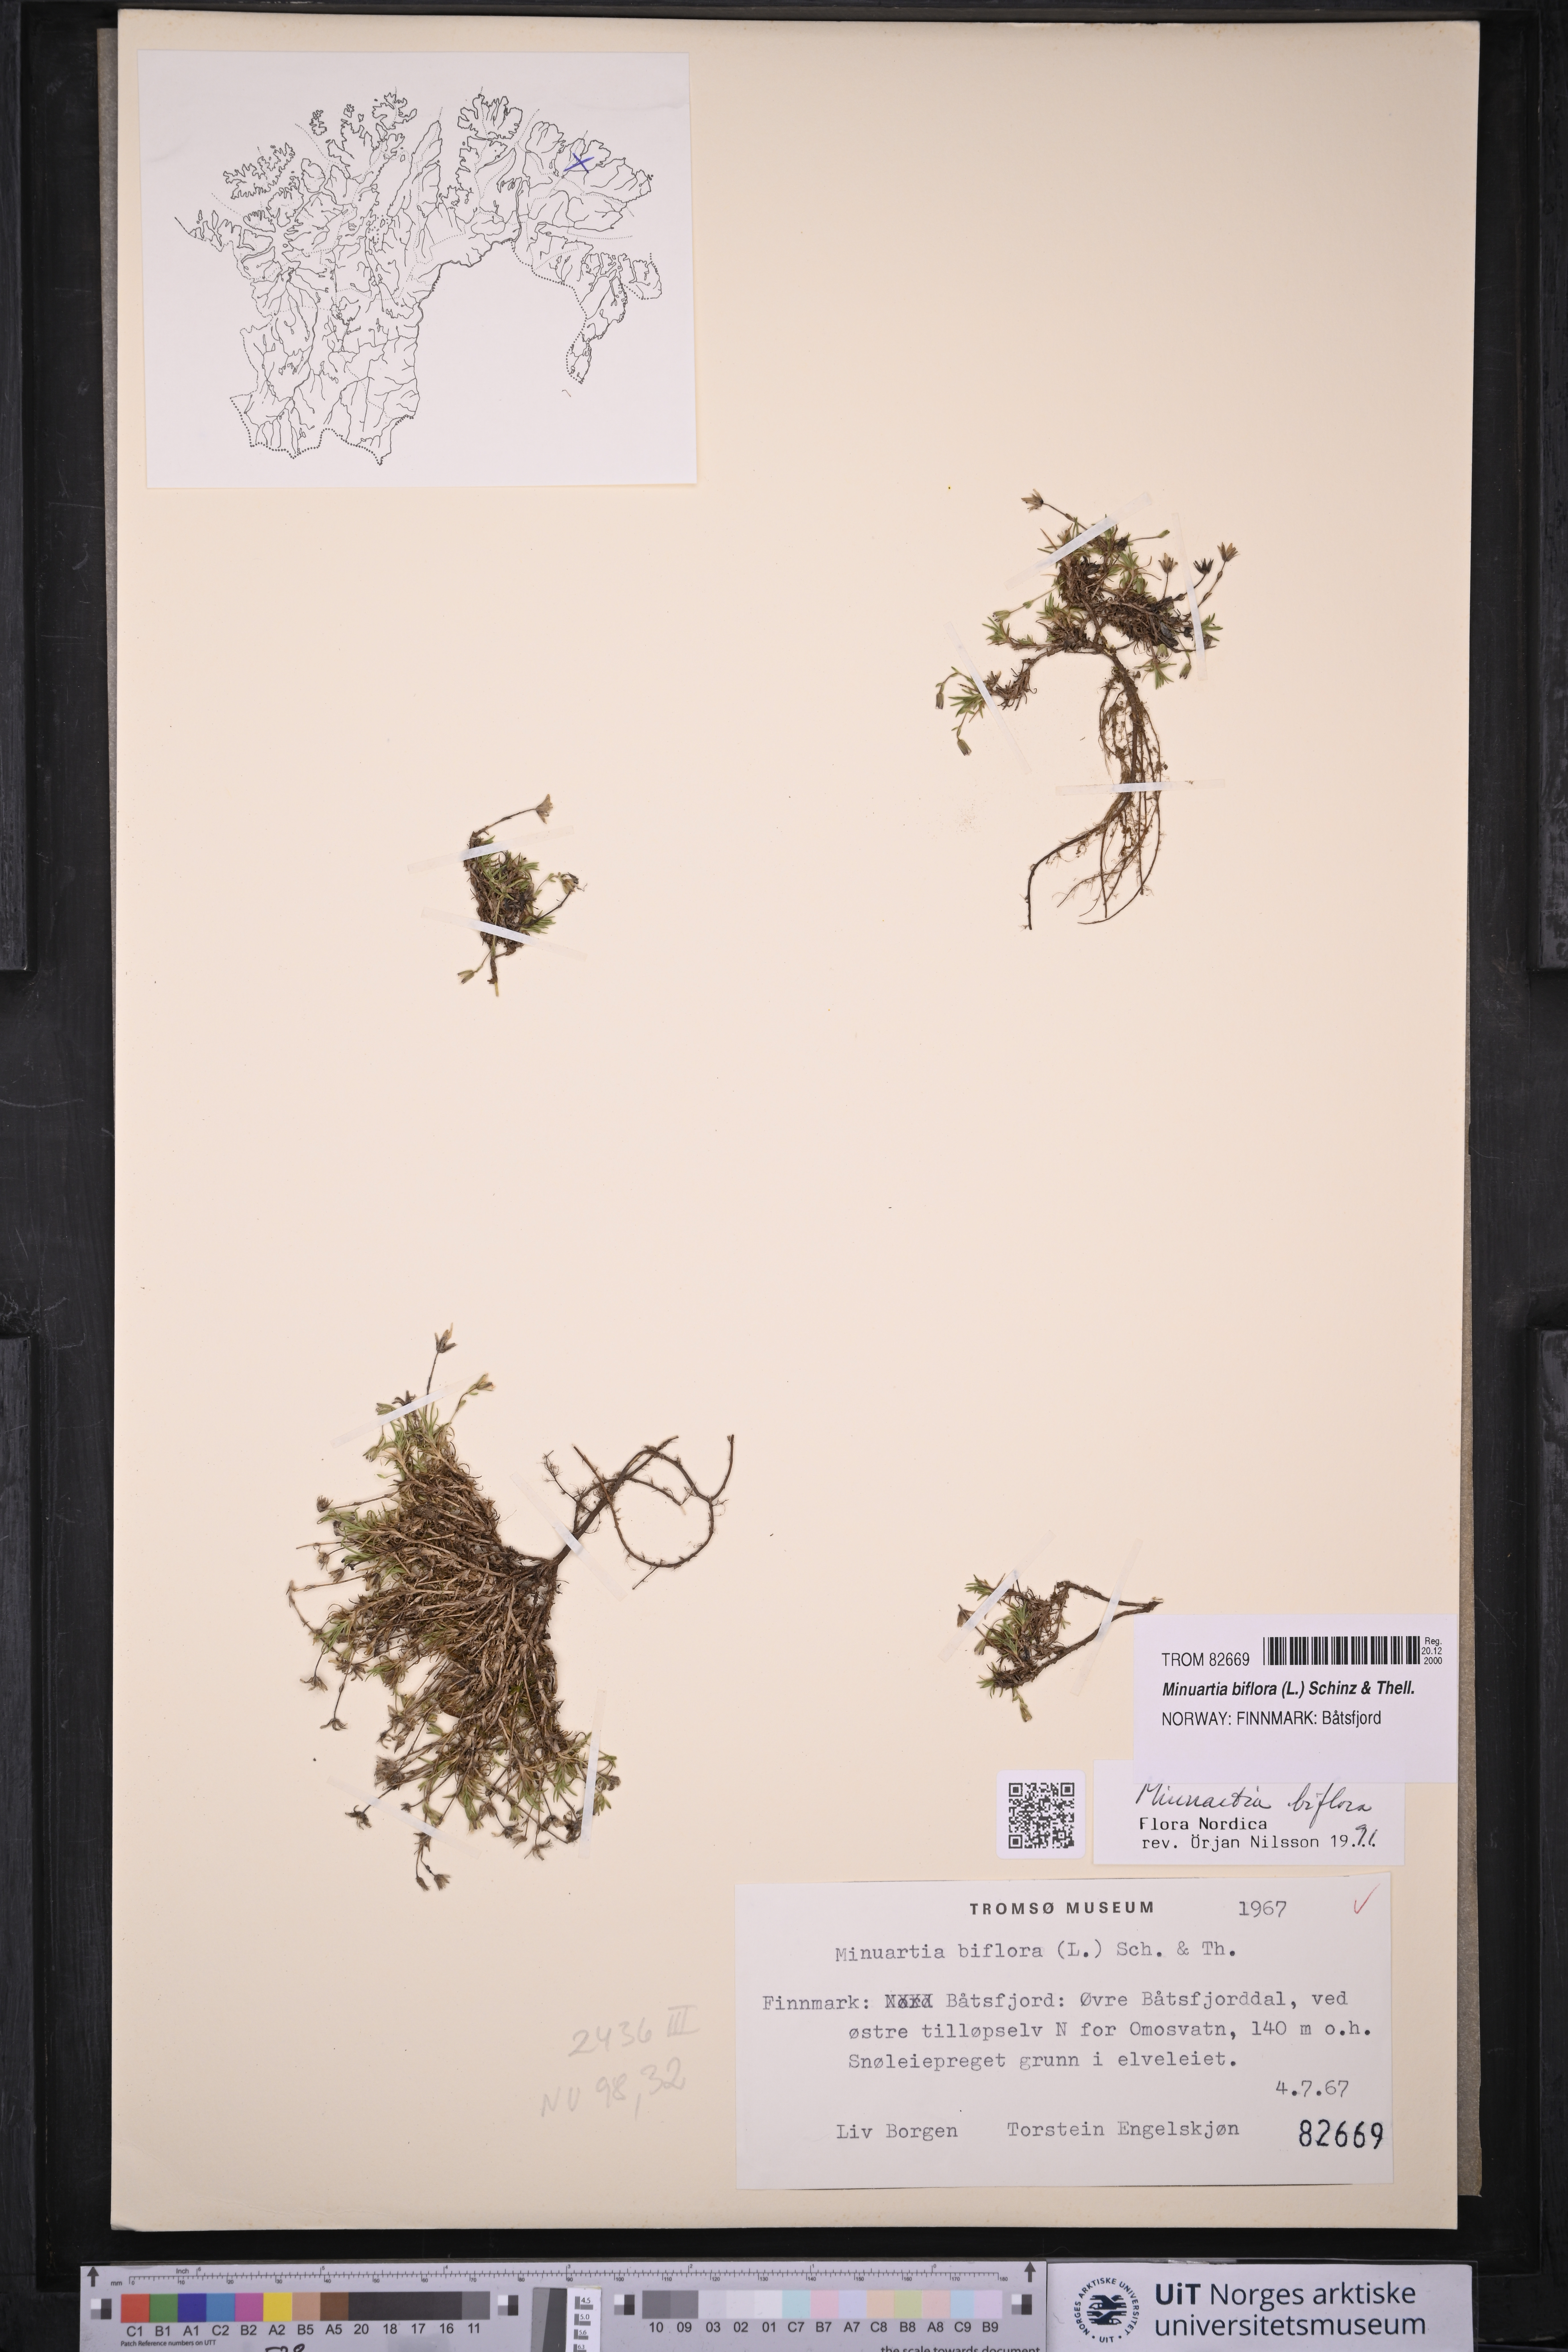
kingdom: Plantae
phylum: Tracheophyta
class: Magnoliopsida
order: Caryophyllales
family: Caryophyllaceae
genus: Cherleria
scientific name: Cherleria biflora
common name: Mountain sandwort
